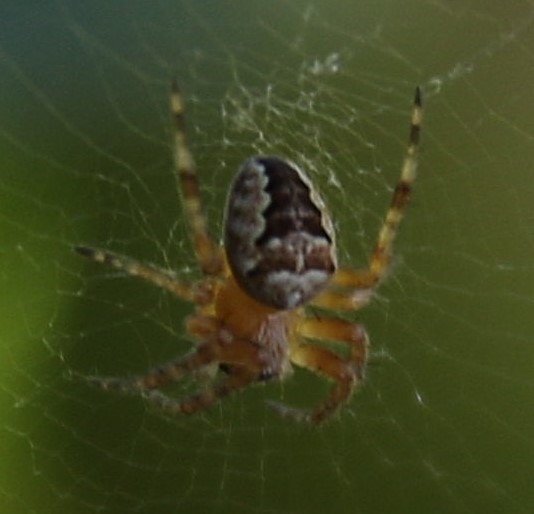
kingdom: Animalia
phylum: Arthropoda
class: Arachnida
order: Araneae
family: Araneidae
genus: Araneus
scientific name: Araneus diadematus
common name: Korsedderkop
